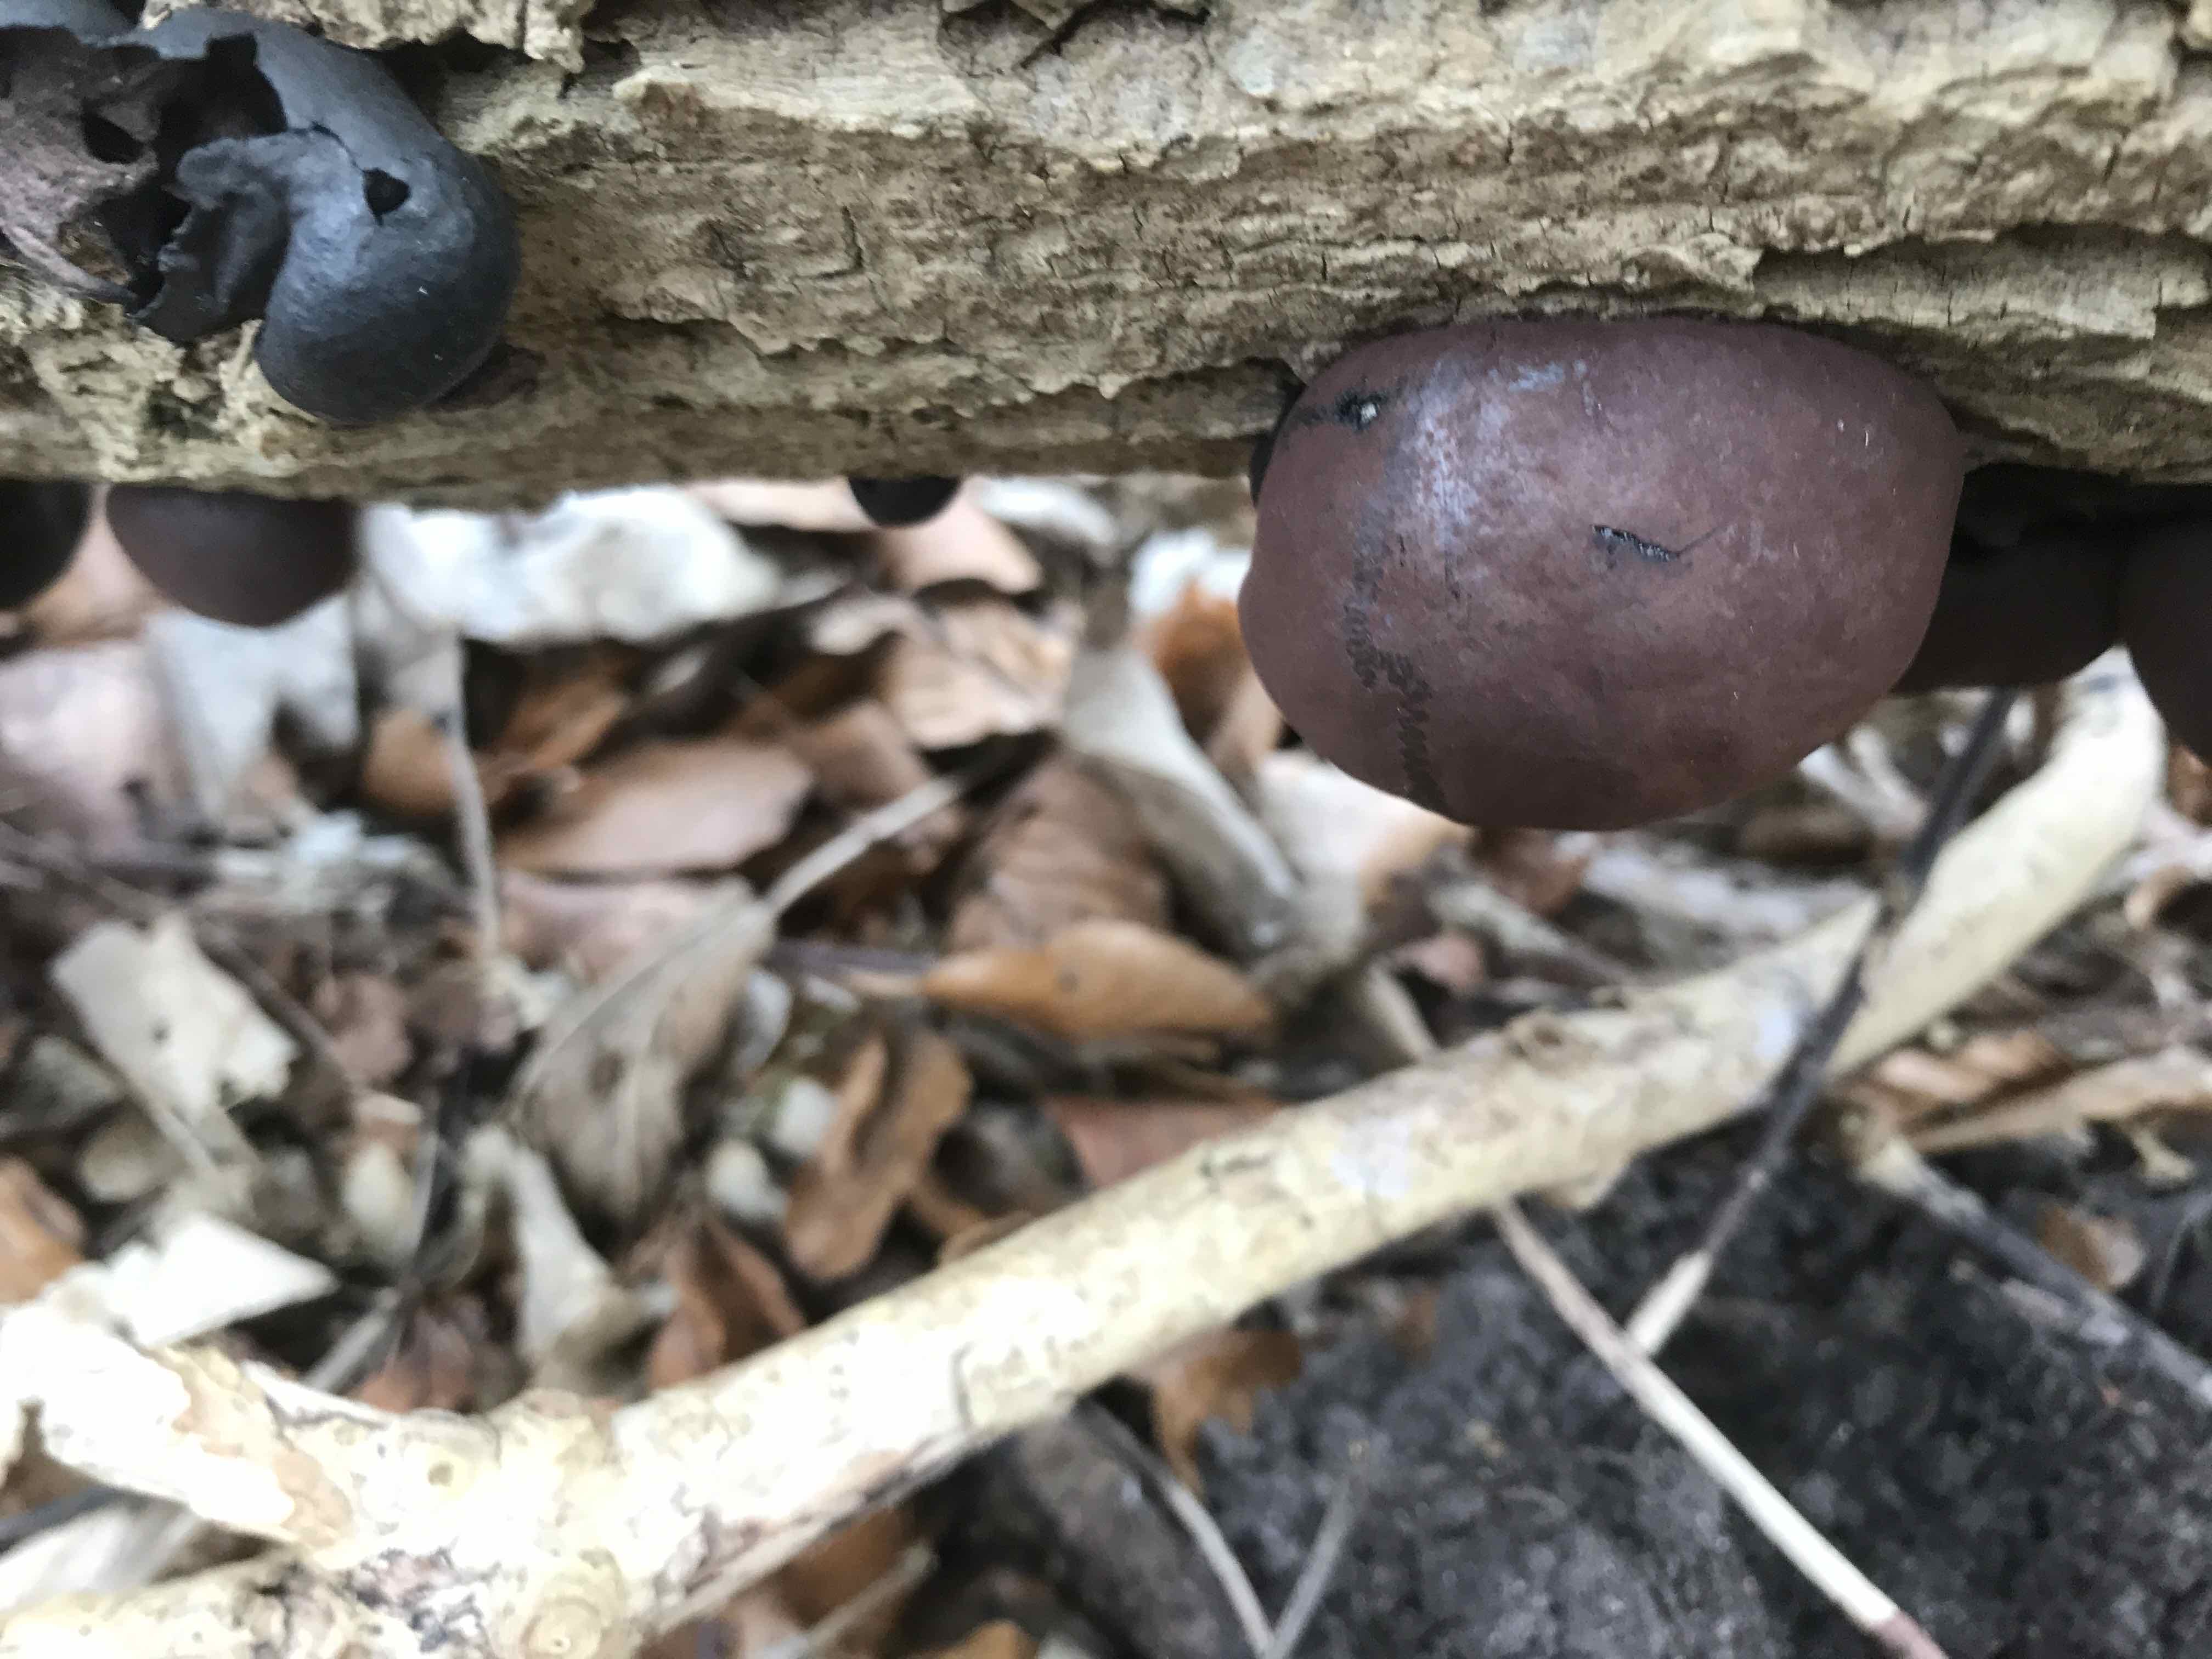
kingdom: Fungi
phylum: Ascomycota
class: Sordariomycetes
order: Xylariales
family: Hypoxylaceae
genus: Daldinia
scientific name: Daldinia concentrica
